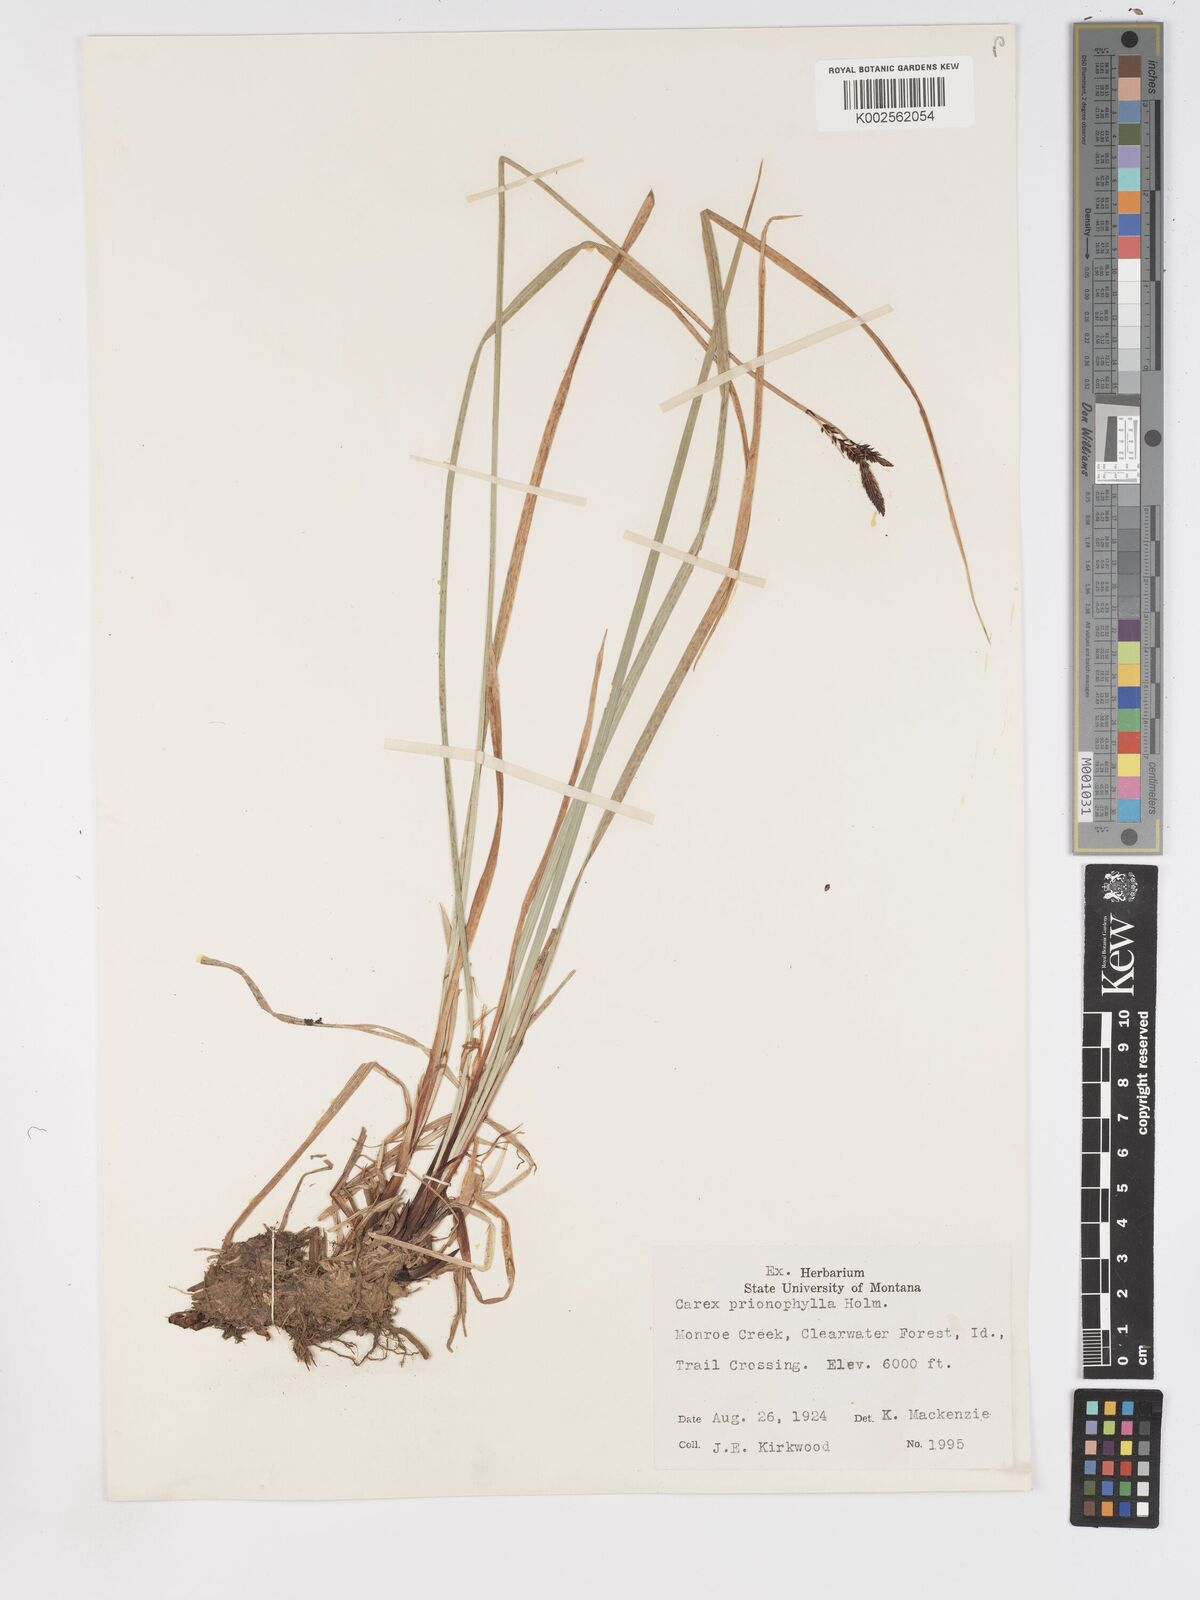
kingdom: Plantae
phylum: Tracheophyta
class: Liliopsida
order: Poales
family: Cyperaceae
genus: Carex
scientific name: Carex scopulorum
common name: Holm's rocky mountain sedge
